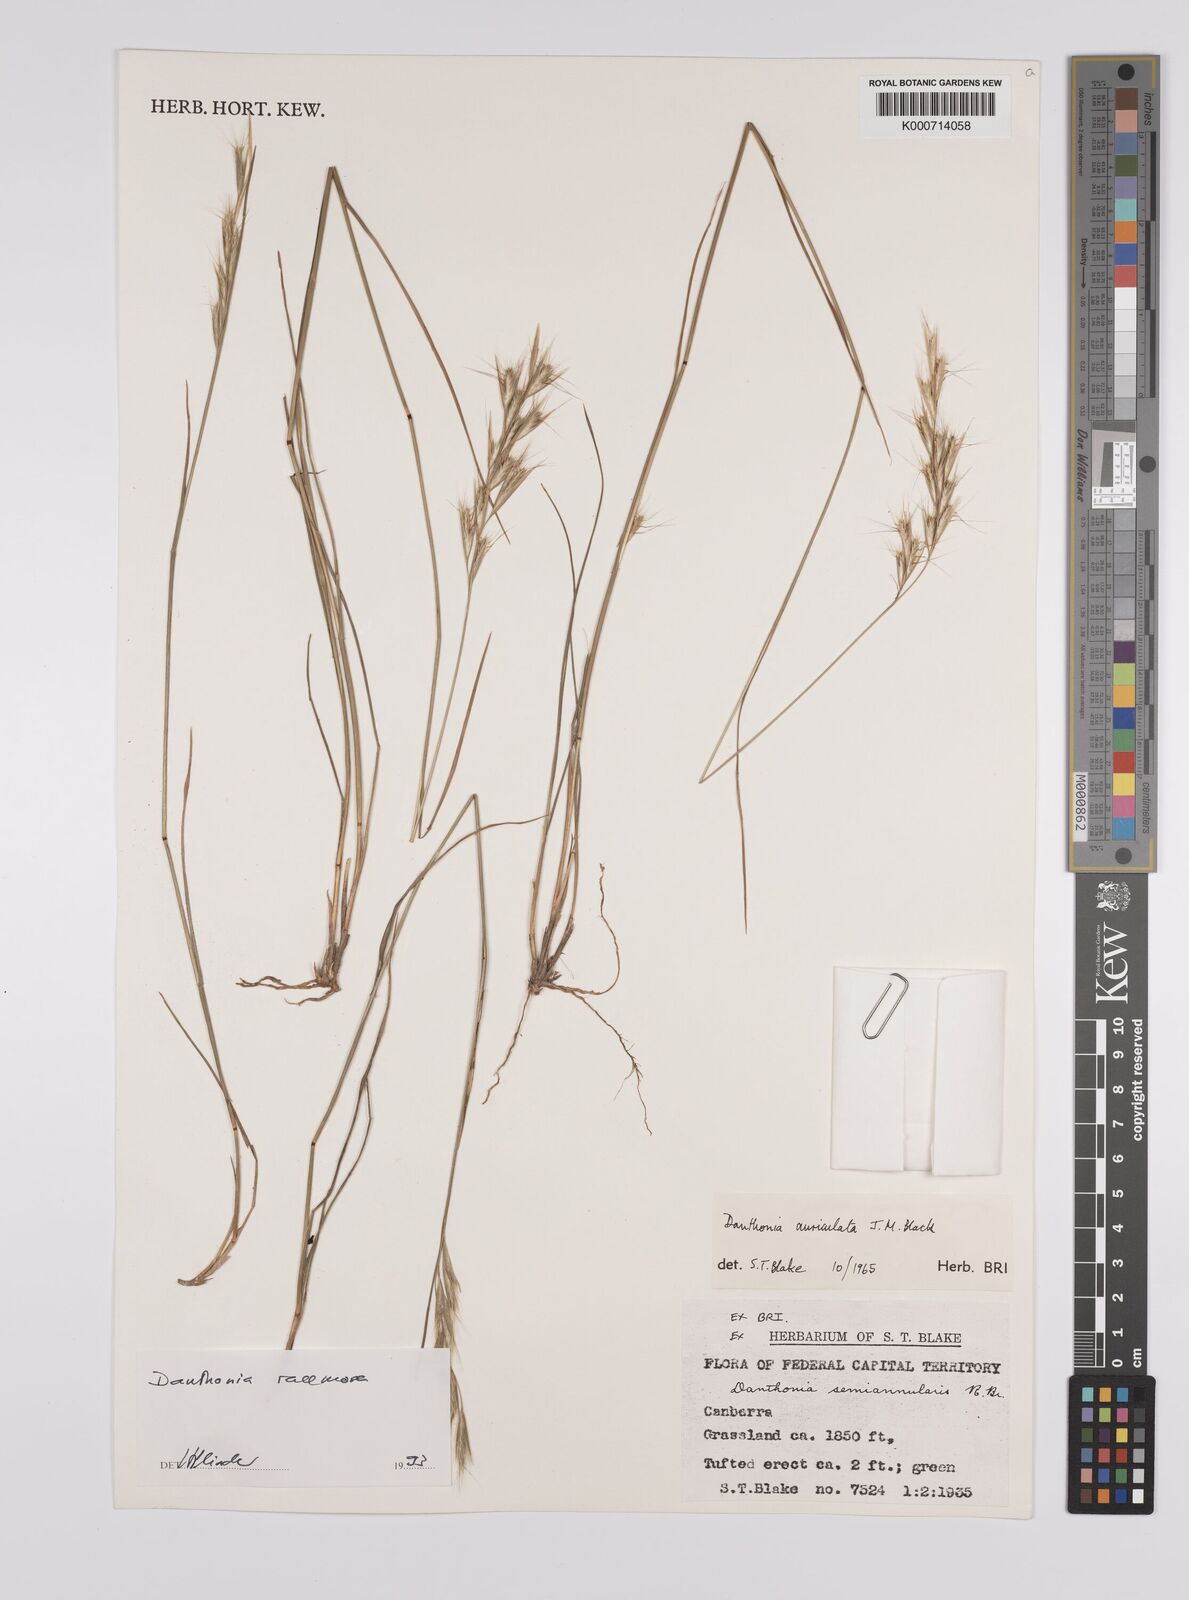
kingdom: Plantae
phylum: Tracheophyta
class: Liliopsida
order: Poales
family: Poaceae
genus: Rytidosperma
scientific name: Rytidosperma racemosum
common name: Wallaby-grass
